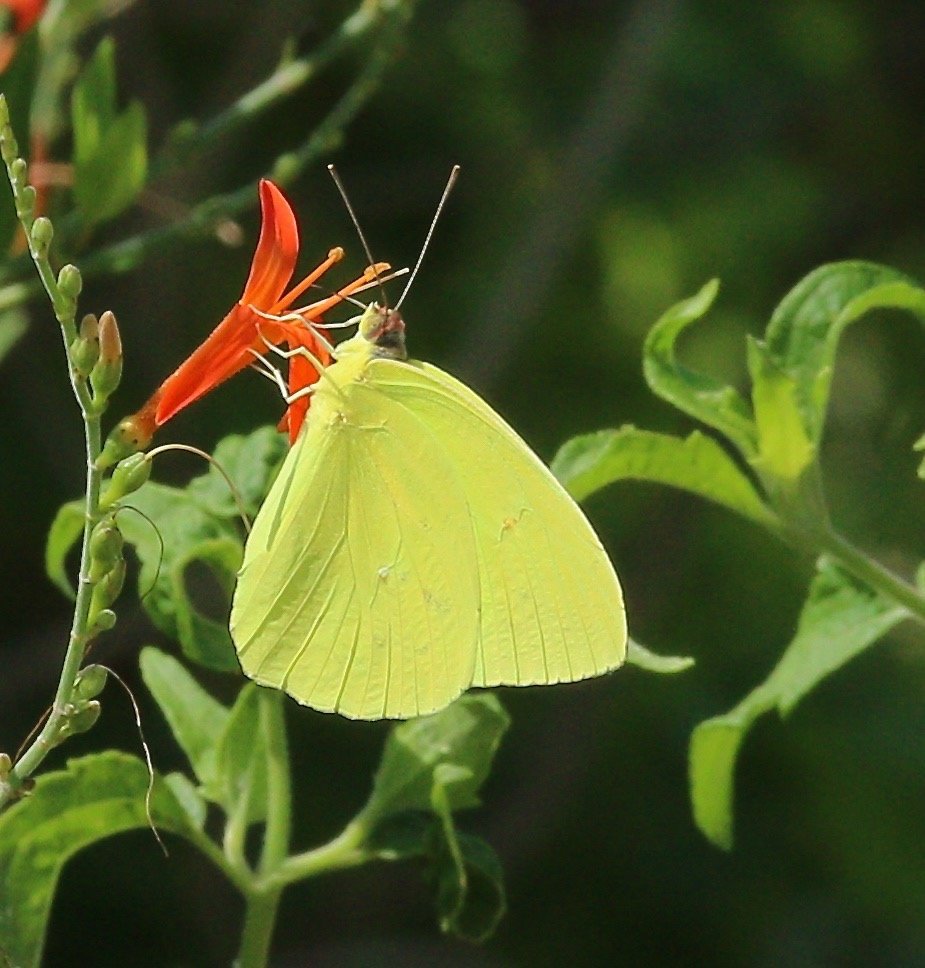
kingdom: Animalia
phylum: Arthropoda
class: Insecta
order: Lepidoptera
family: Pieridae
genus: Phoebis
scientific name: Phoebis sennae
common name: Cloudless Sulphur
